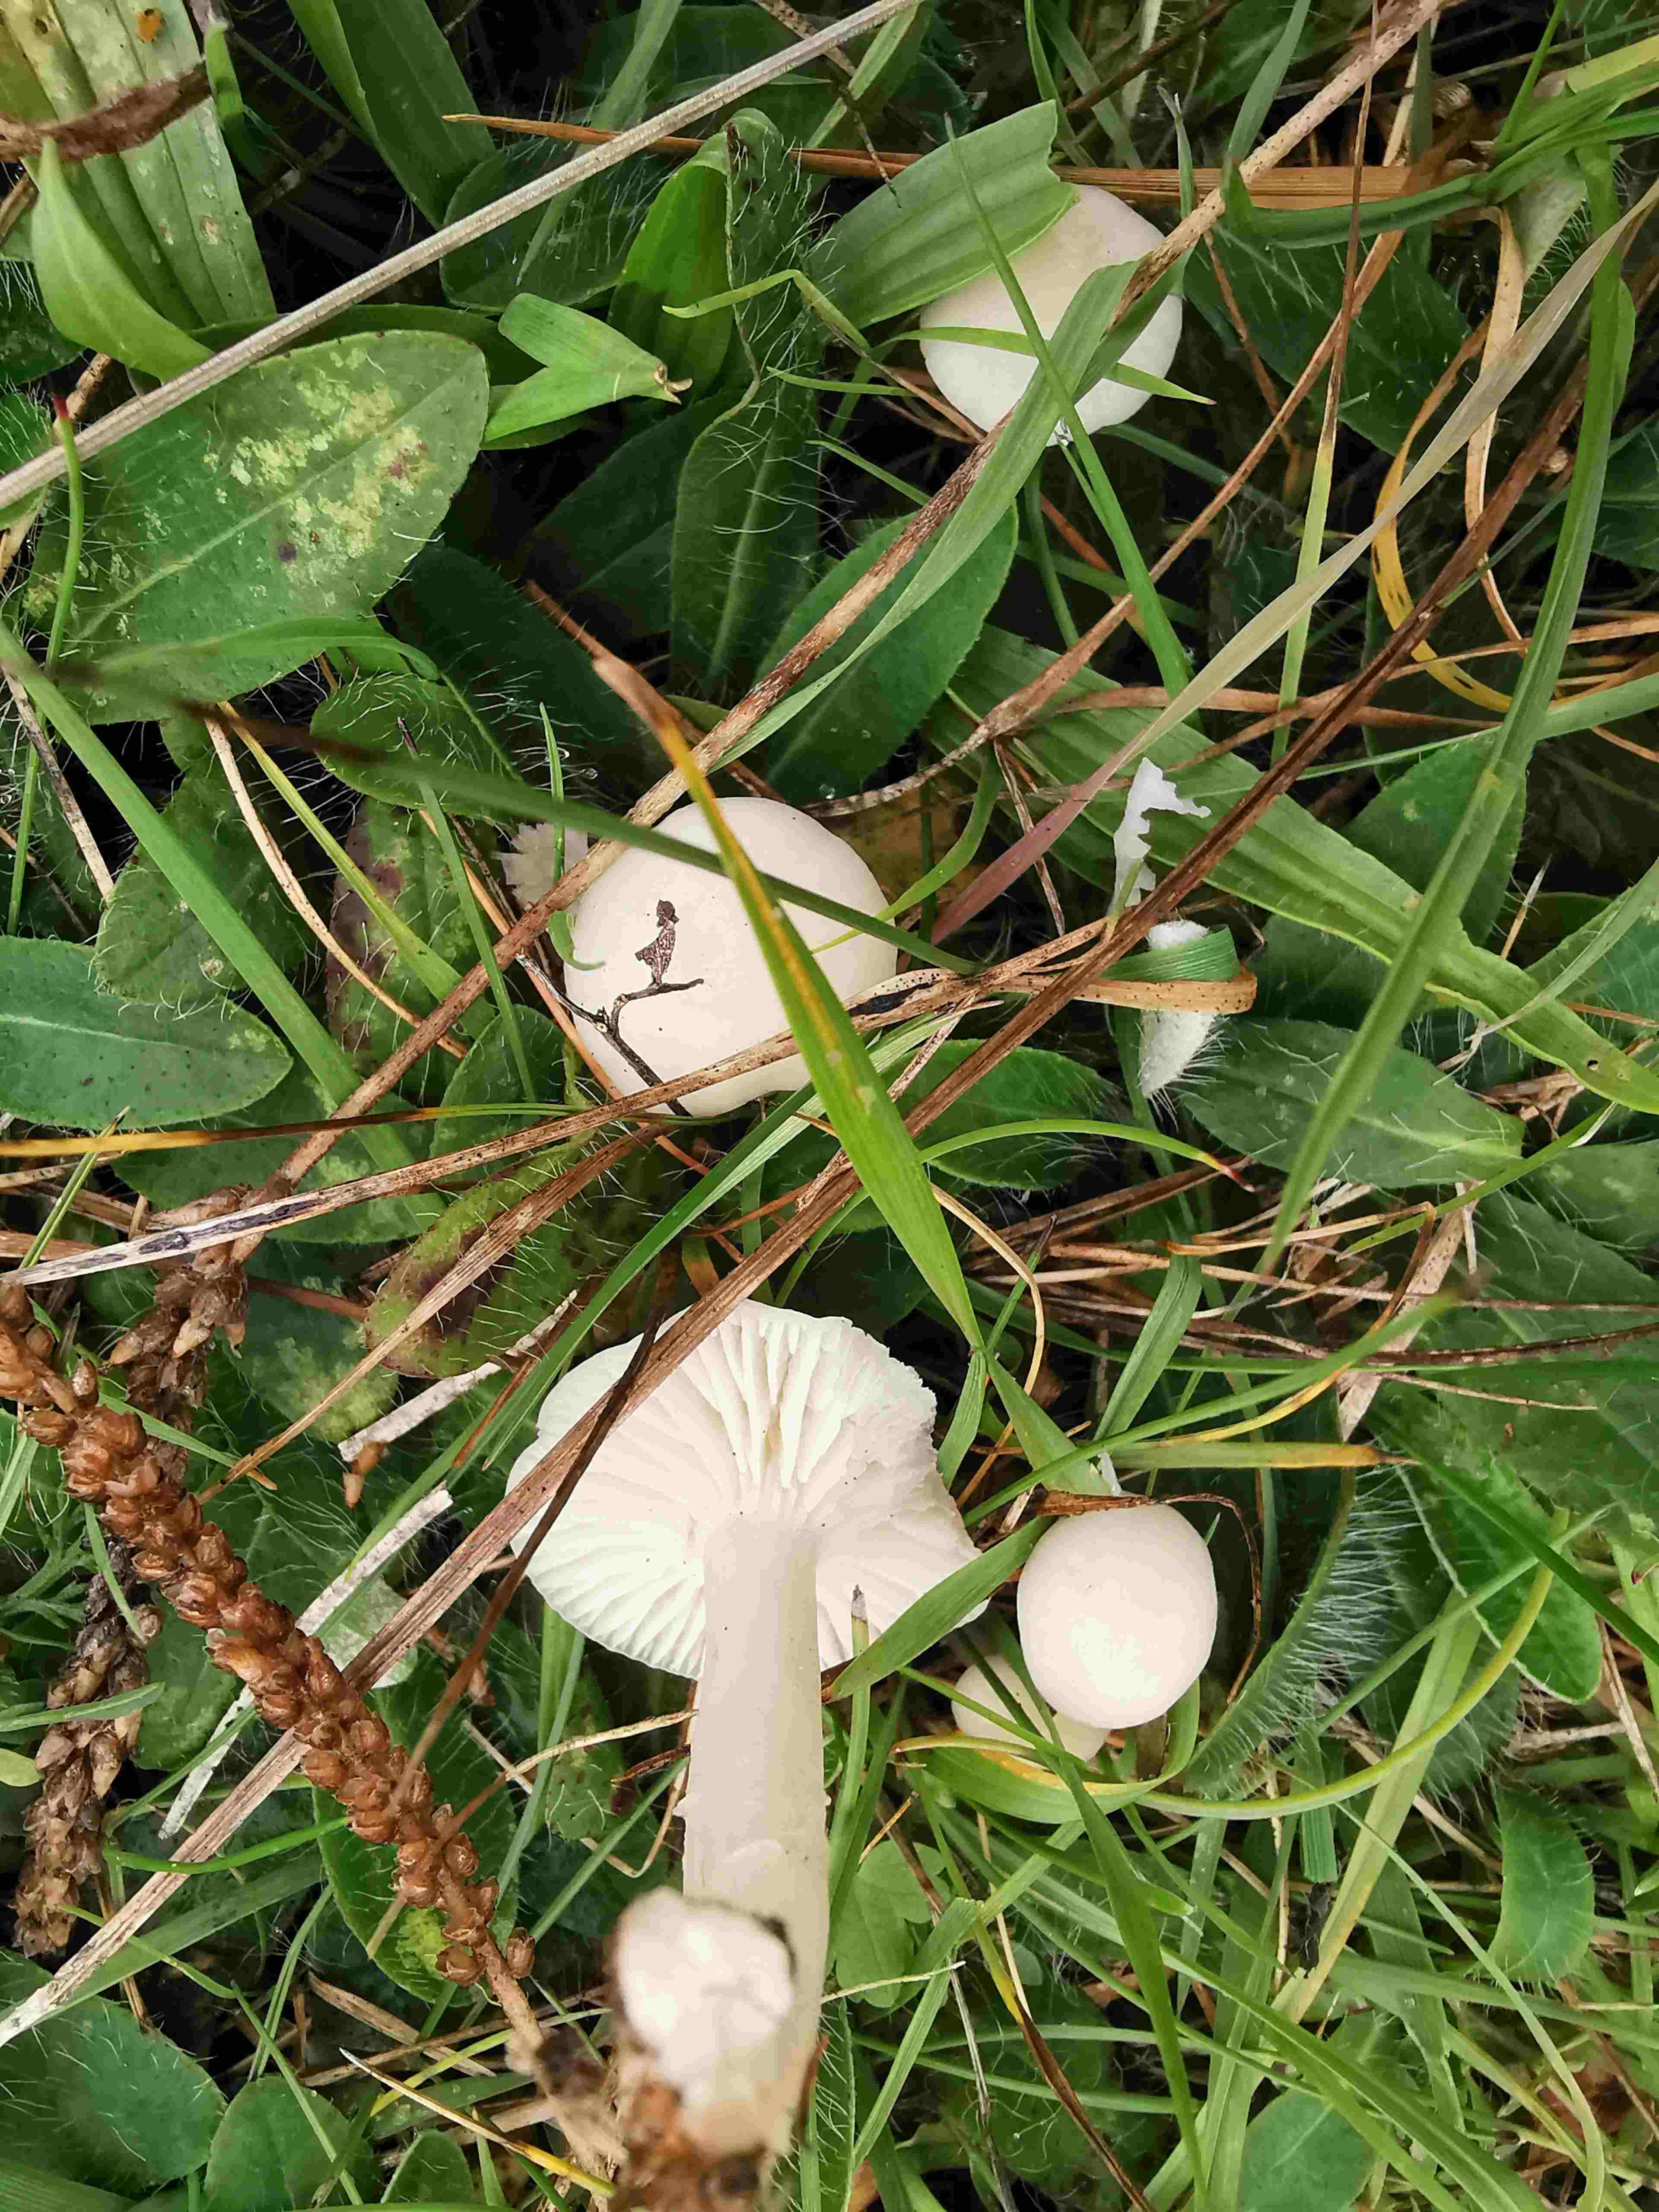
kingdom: Fungi
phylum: Basidiomycota
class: Agaricomycetes
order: Agaricales
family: Hygrophoraceae
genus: Cuphophyllus
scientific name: Cuphophyllus virgineus
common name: snehvid vokshat
